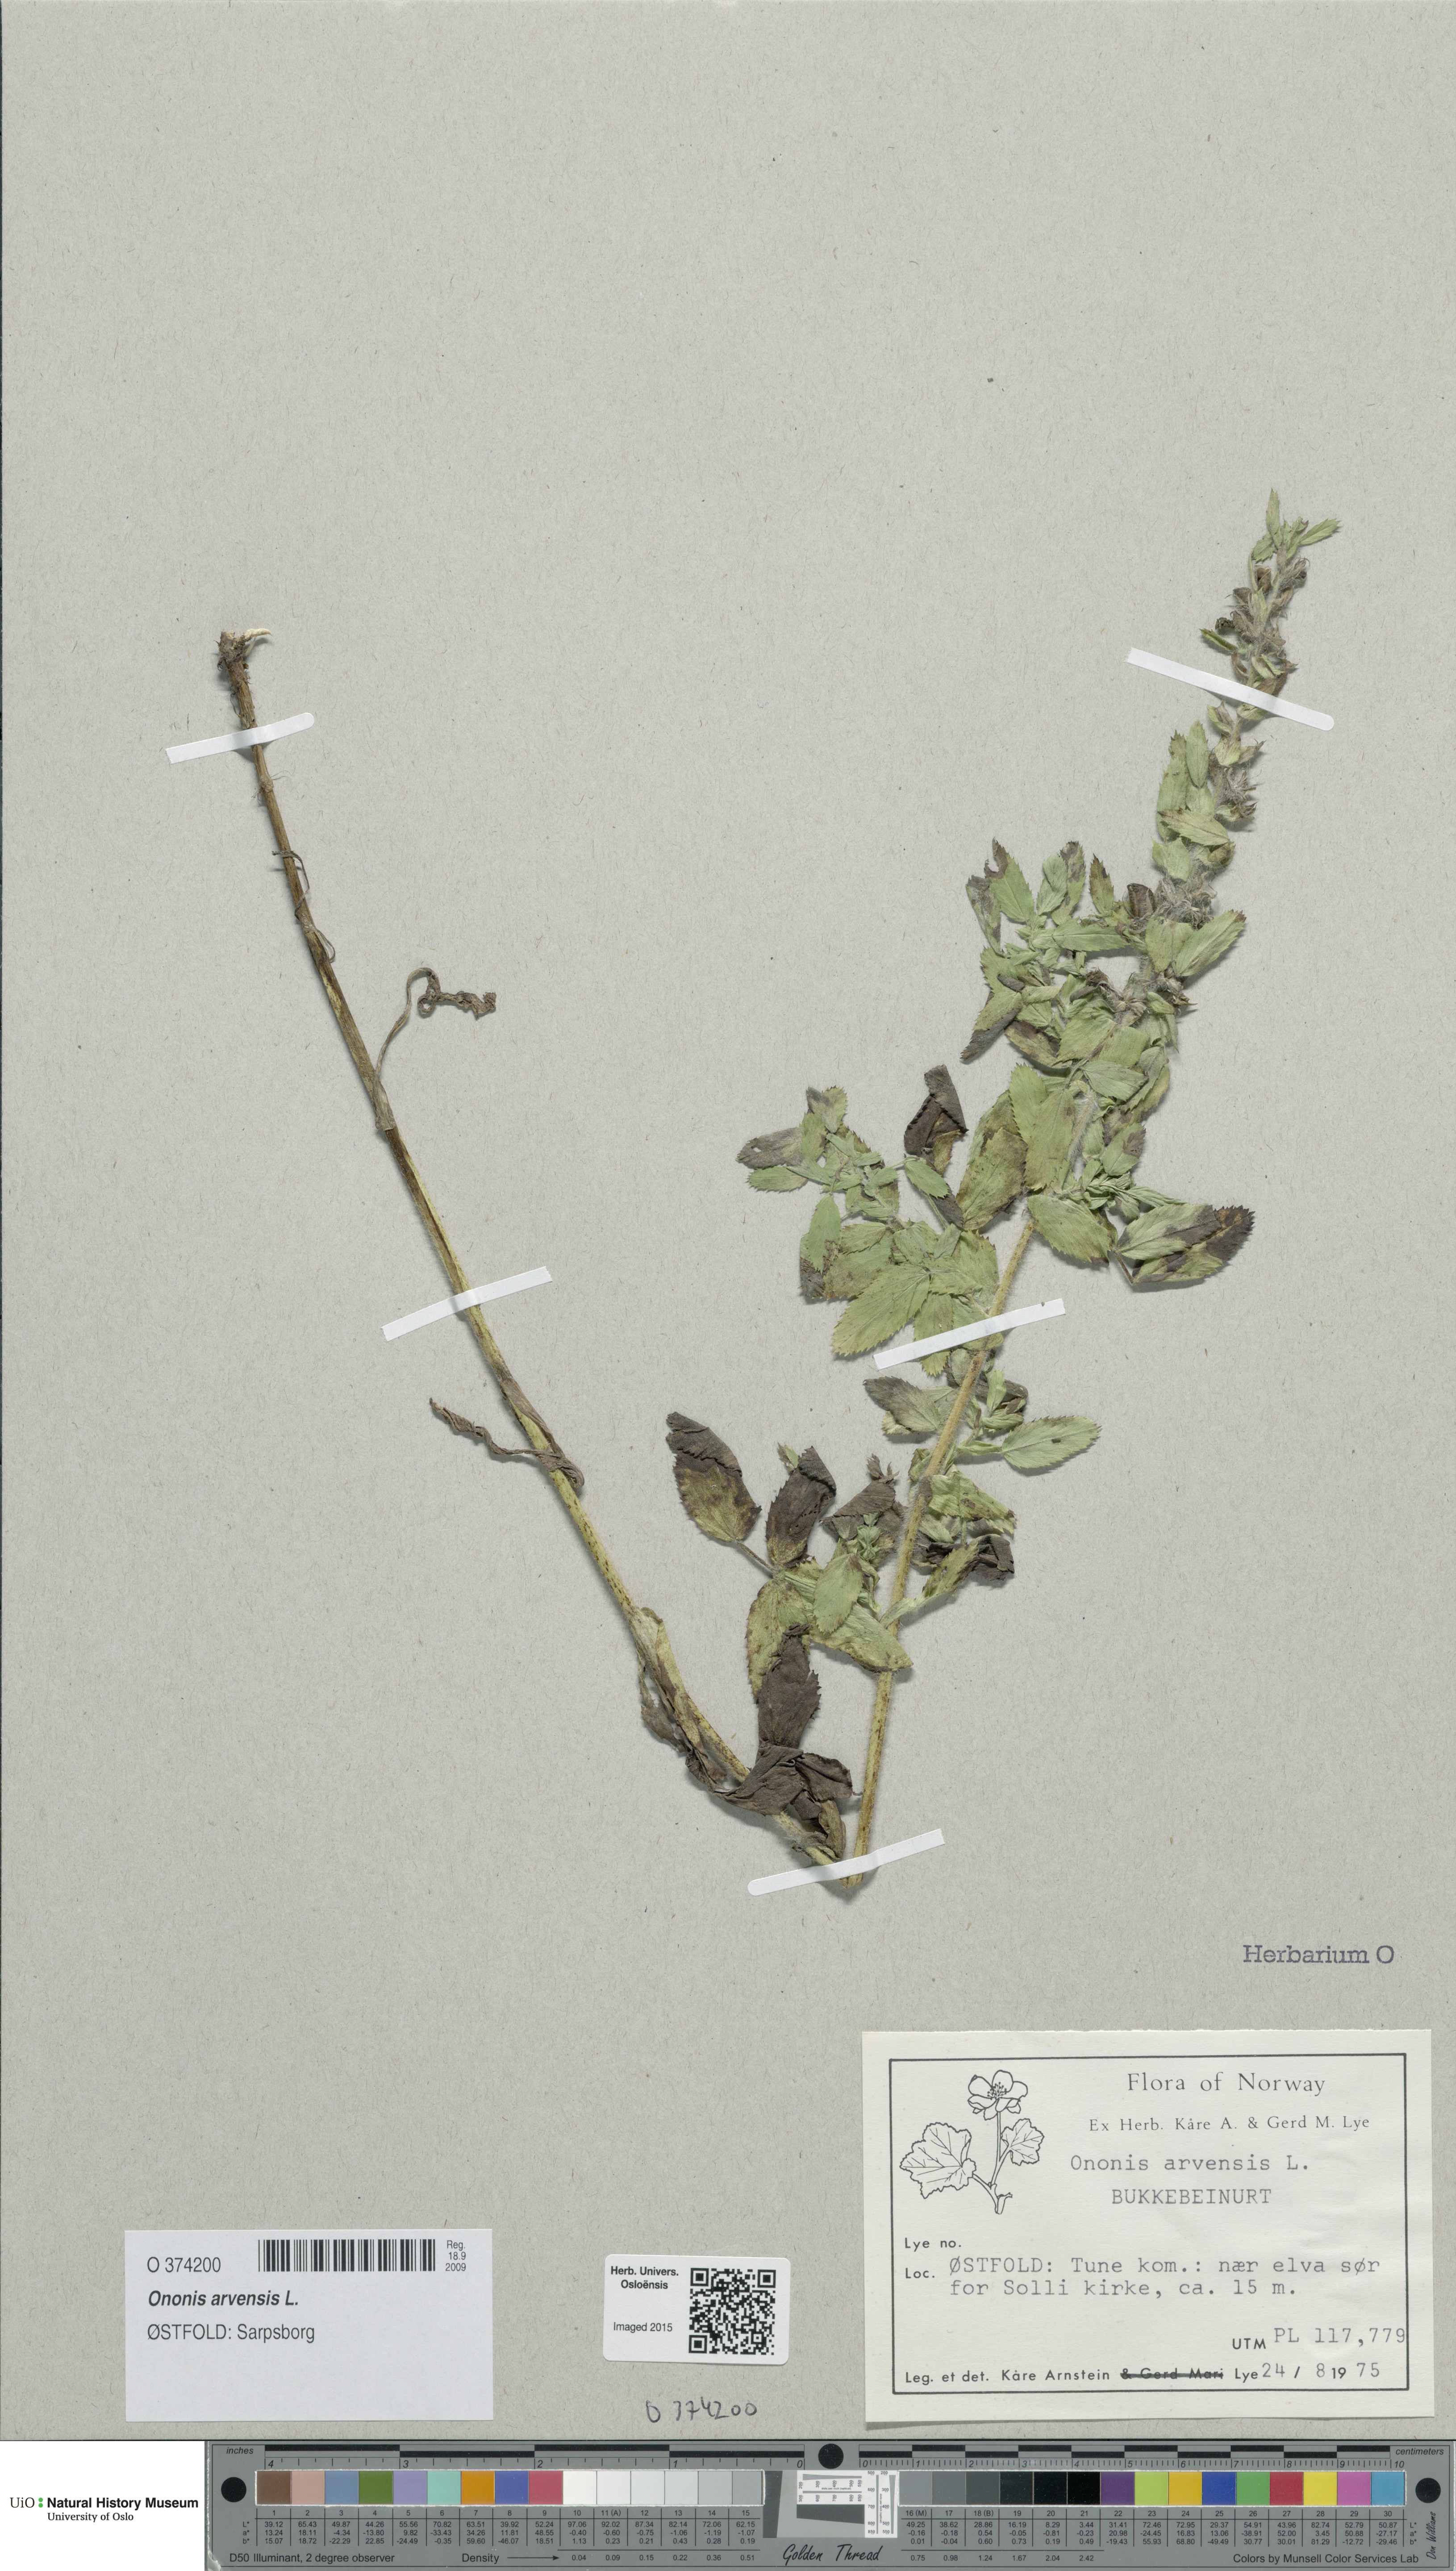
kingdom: Plantae
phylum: Tracheophyta
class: Magnoliopsida
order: Fabales
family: Fabaceae
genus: Ononis
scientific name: Ononis arvensis
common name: Field restharrow
